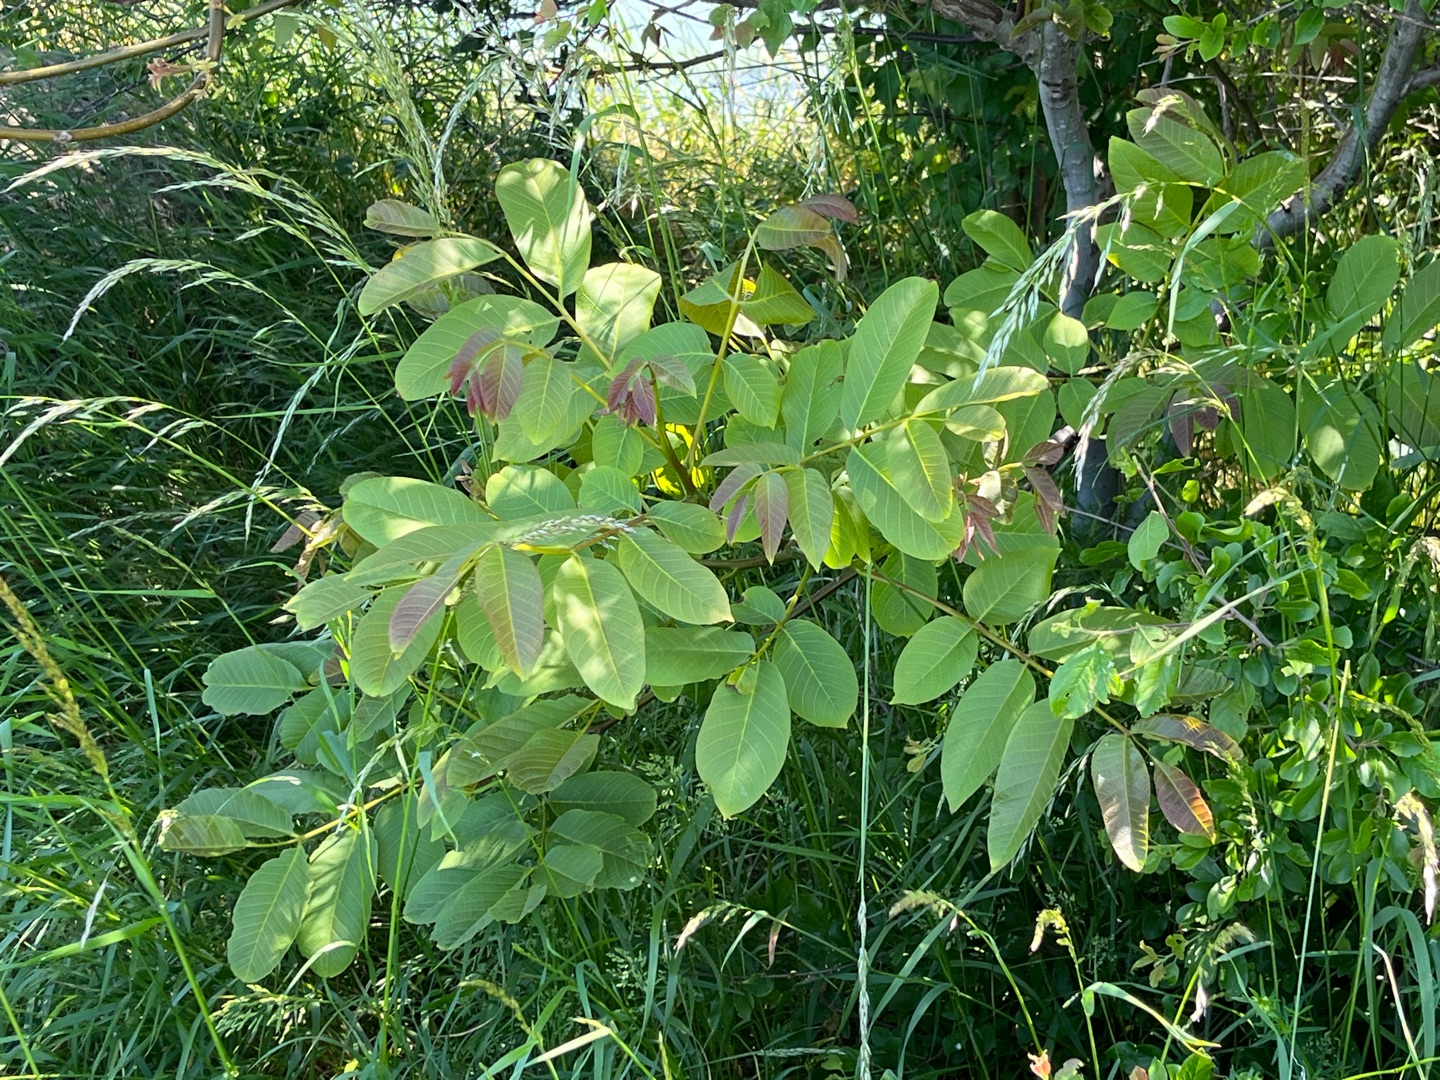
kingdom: Plantae
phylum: Tracheophyta
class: Magnoliopsida
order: Fagales
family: Juglandaceae
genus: Juglans
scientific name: Juglans regia
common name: Almindelig valnød
